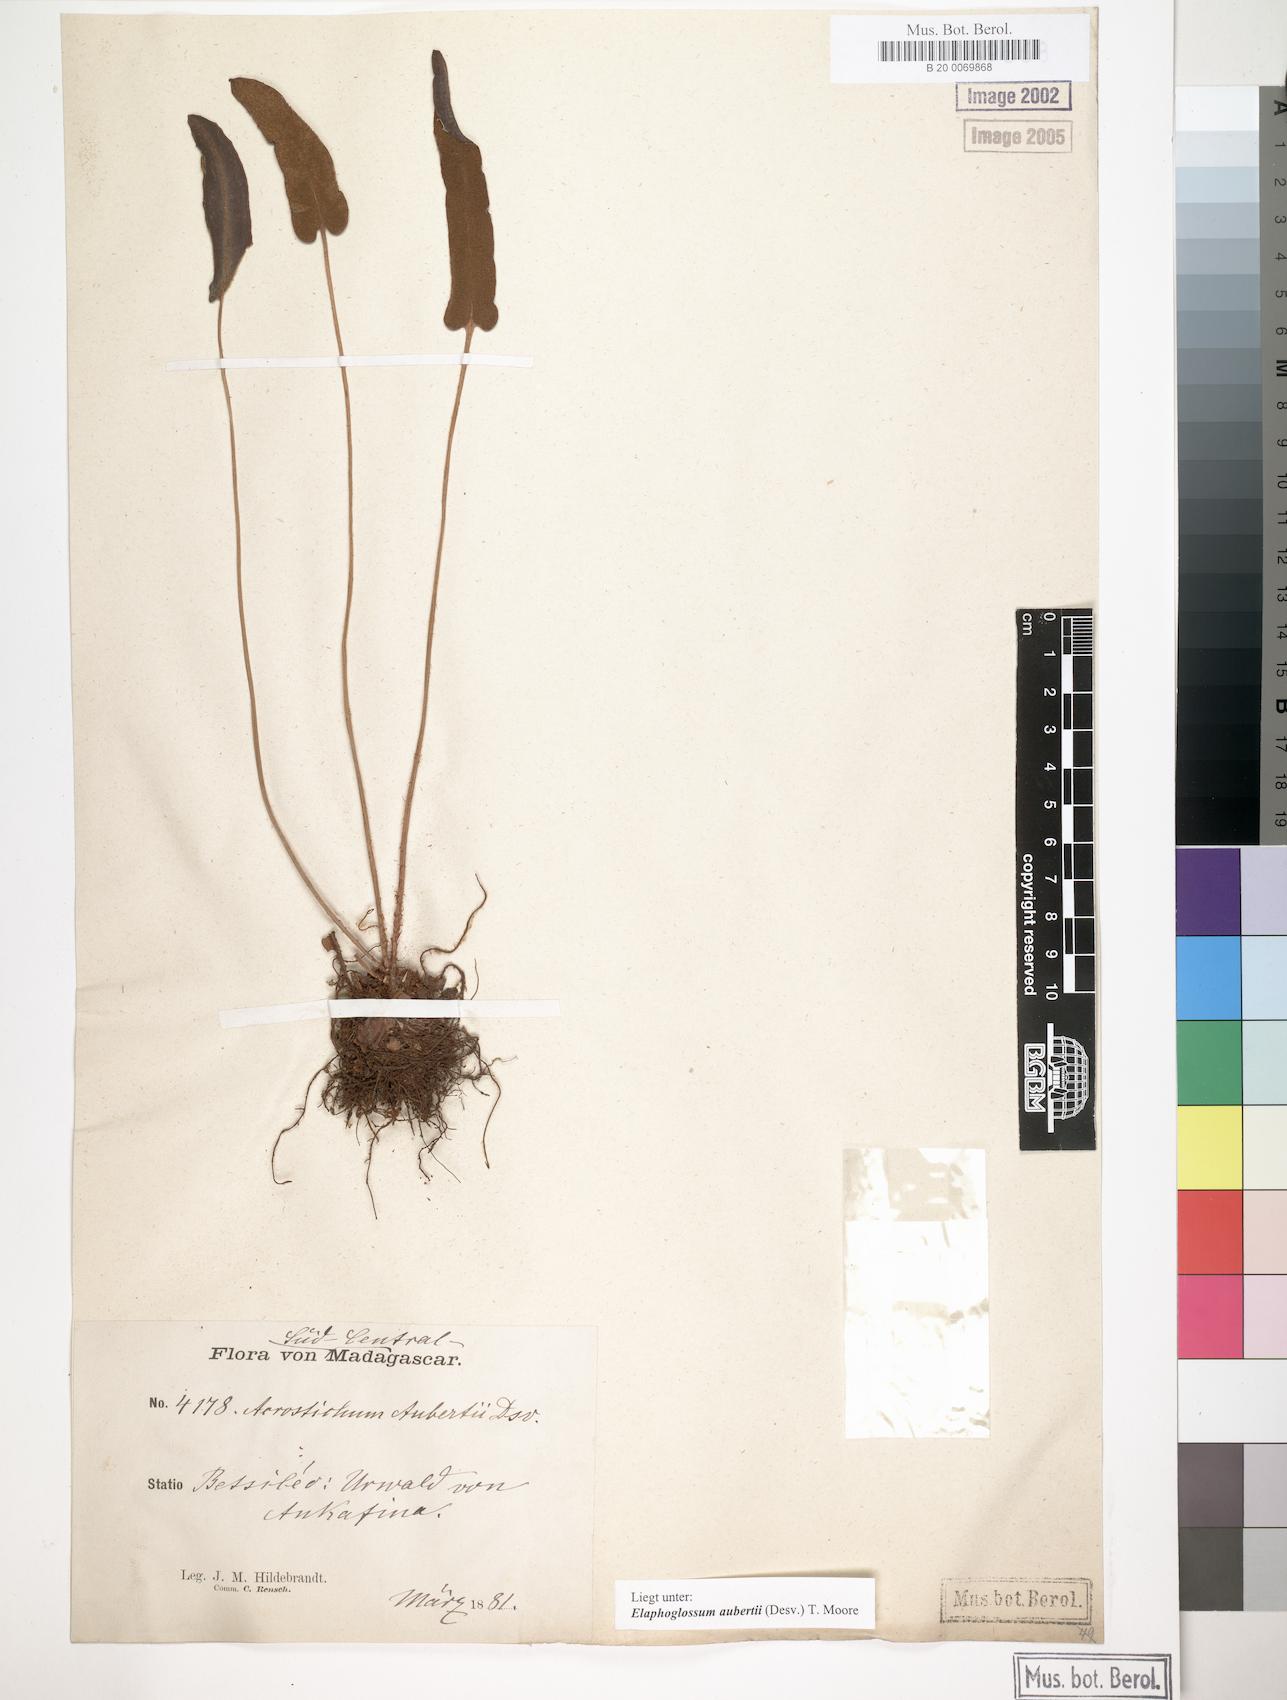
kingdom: Plantae
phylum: Tracheophyta
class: Polypodiopsida
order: Polypodiales
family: Dryopteridaceae
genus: Elaphoglossum
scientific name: Elaphoglossum aubertii
